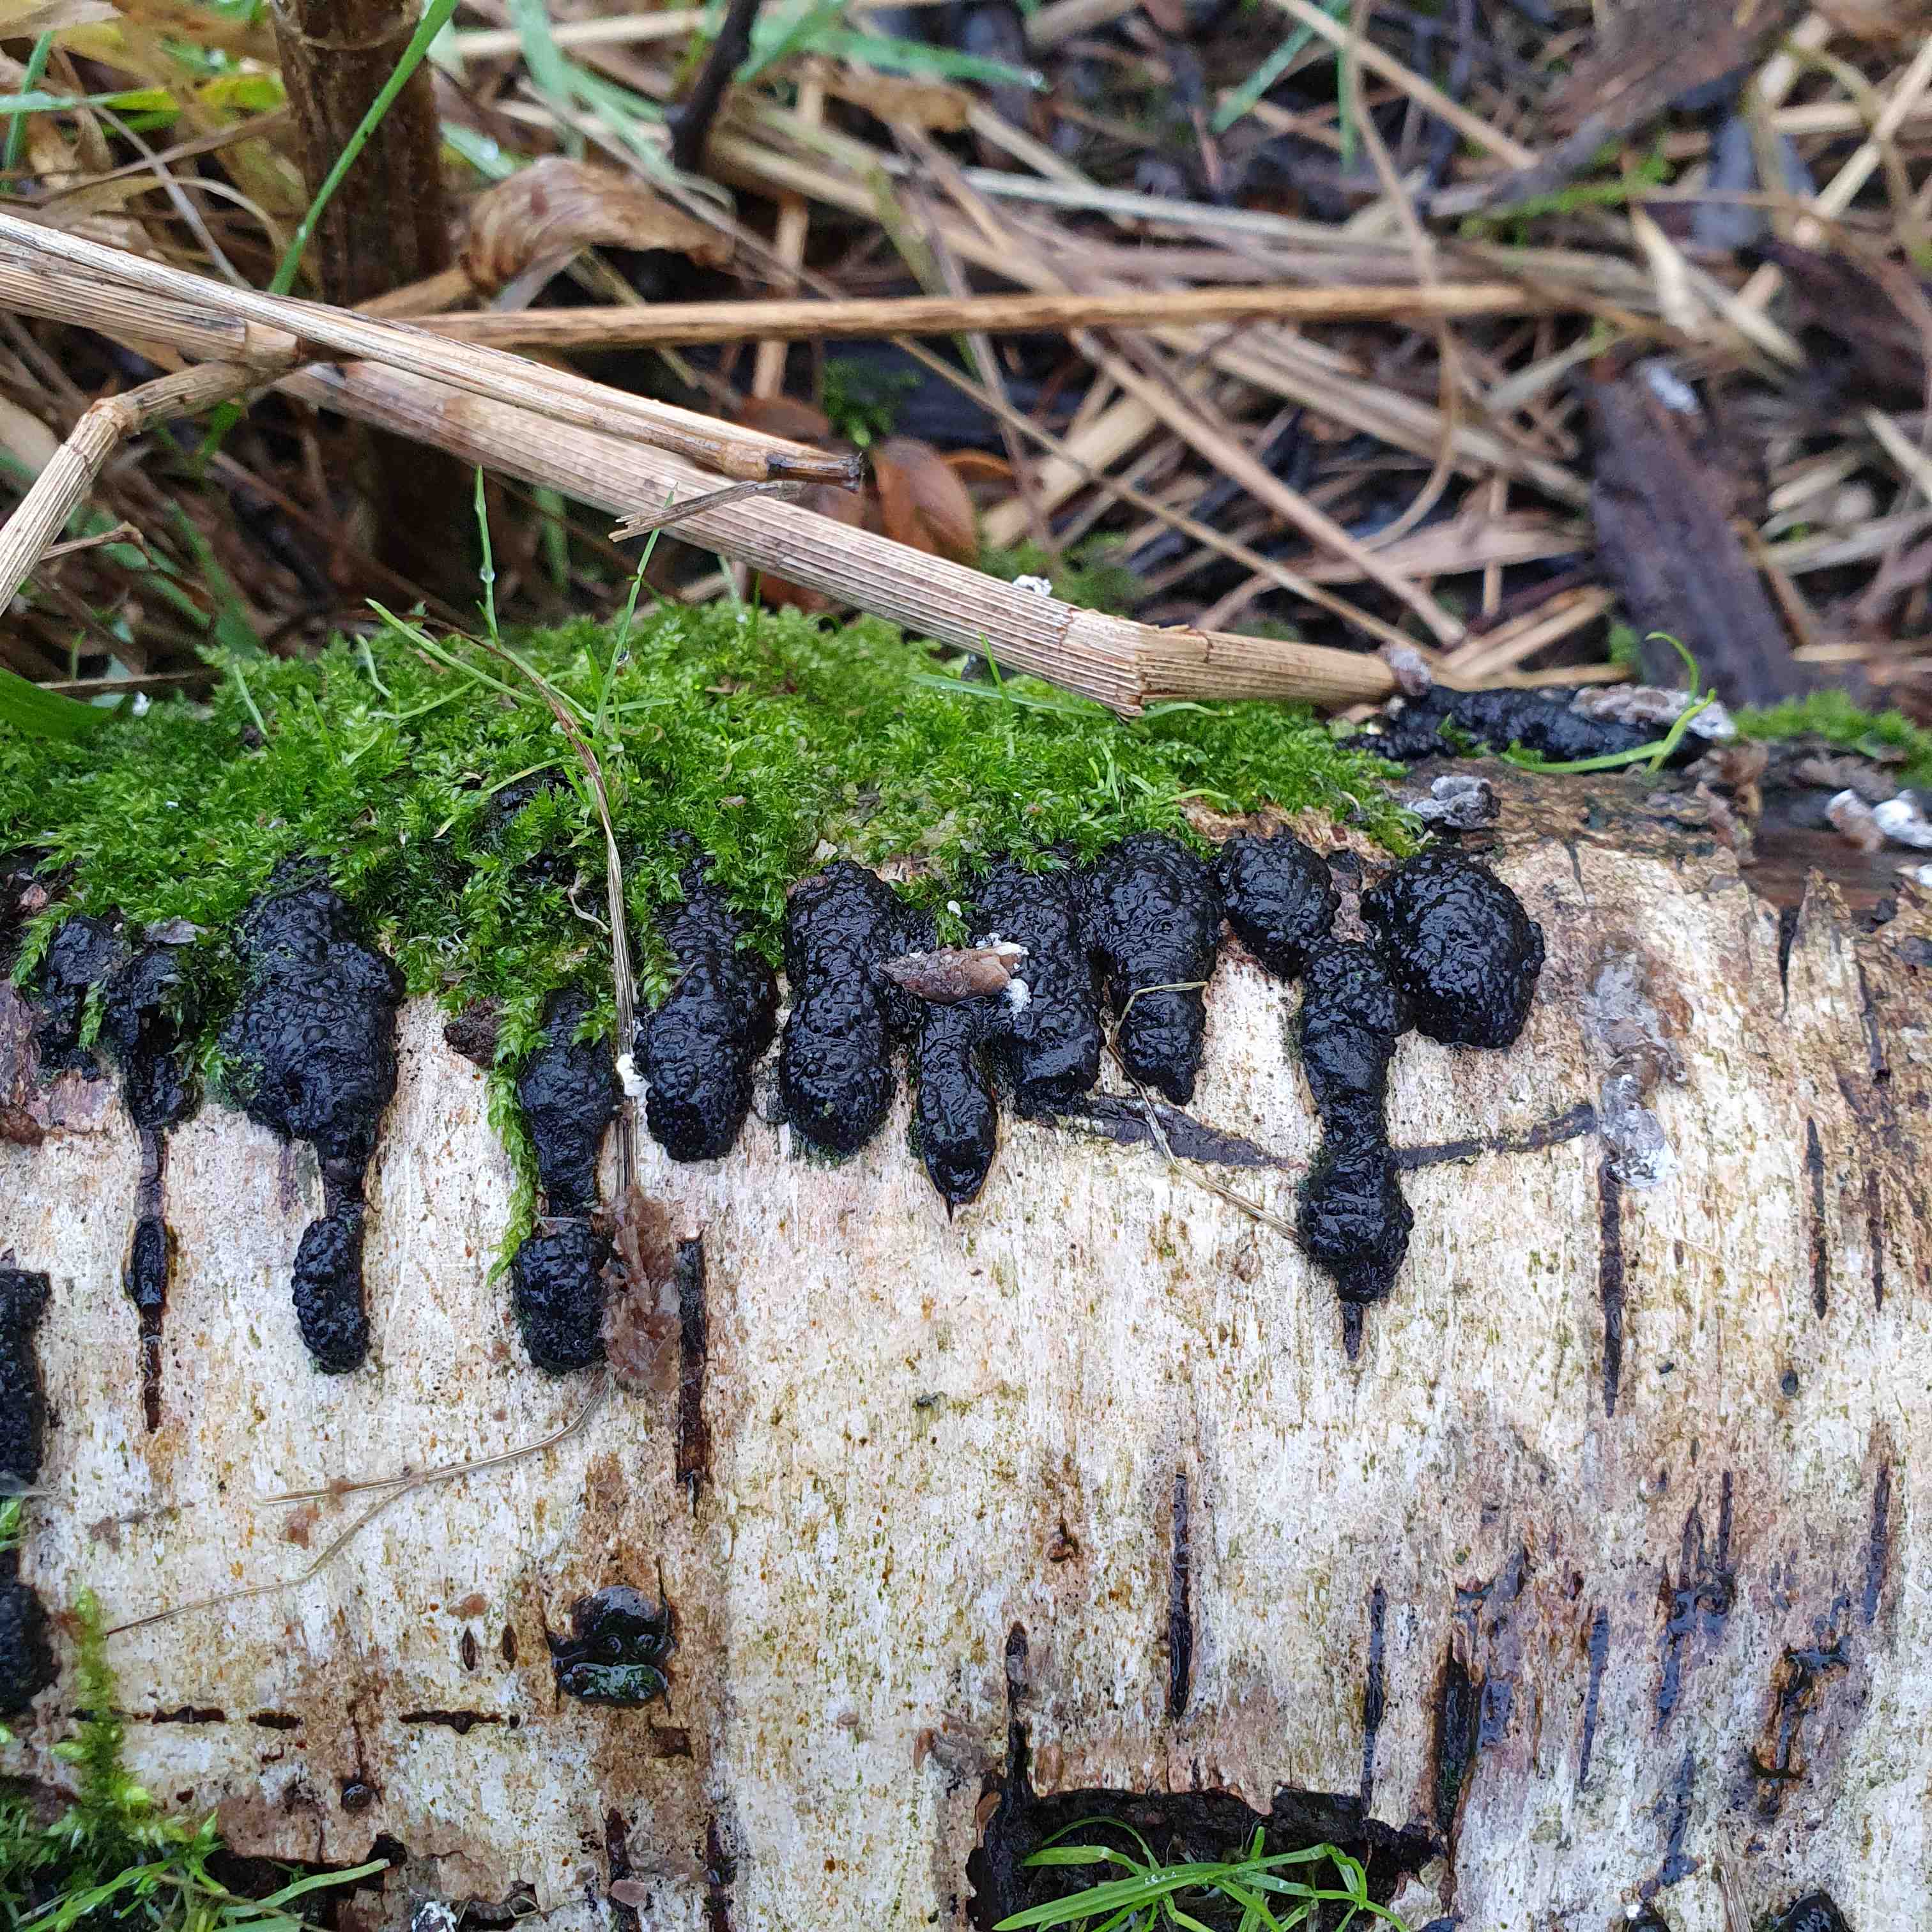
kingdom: Fungi
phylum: Ascomycota
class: Sordariomycetes
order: Xylariales
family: Hypoxylaceae
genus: Jackrogersella
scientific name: Jackrogersella multiformis
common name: foranderlig kulbær
